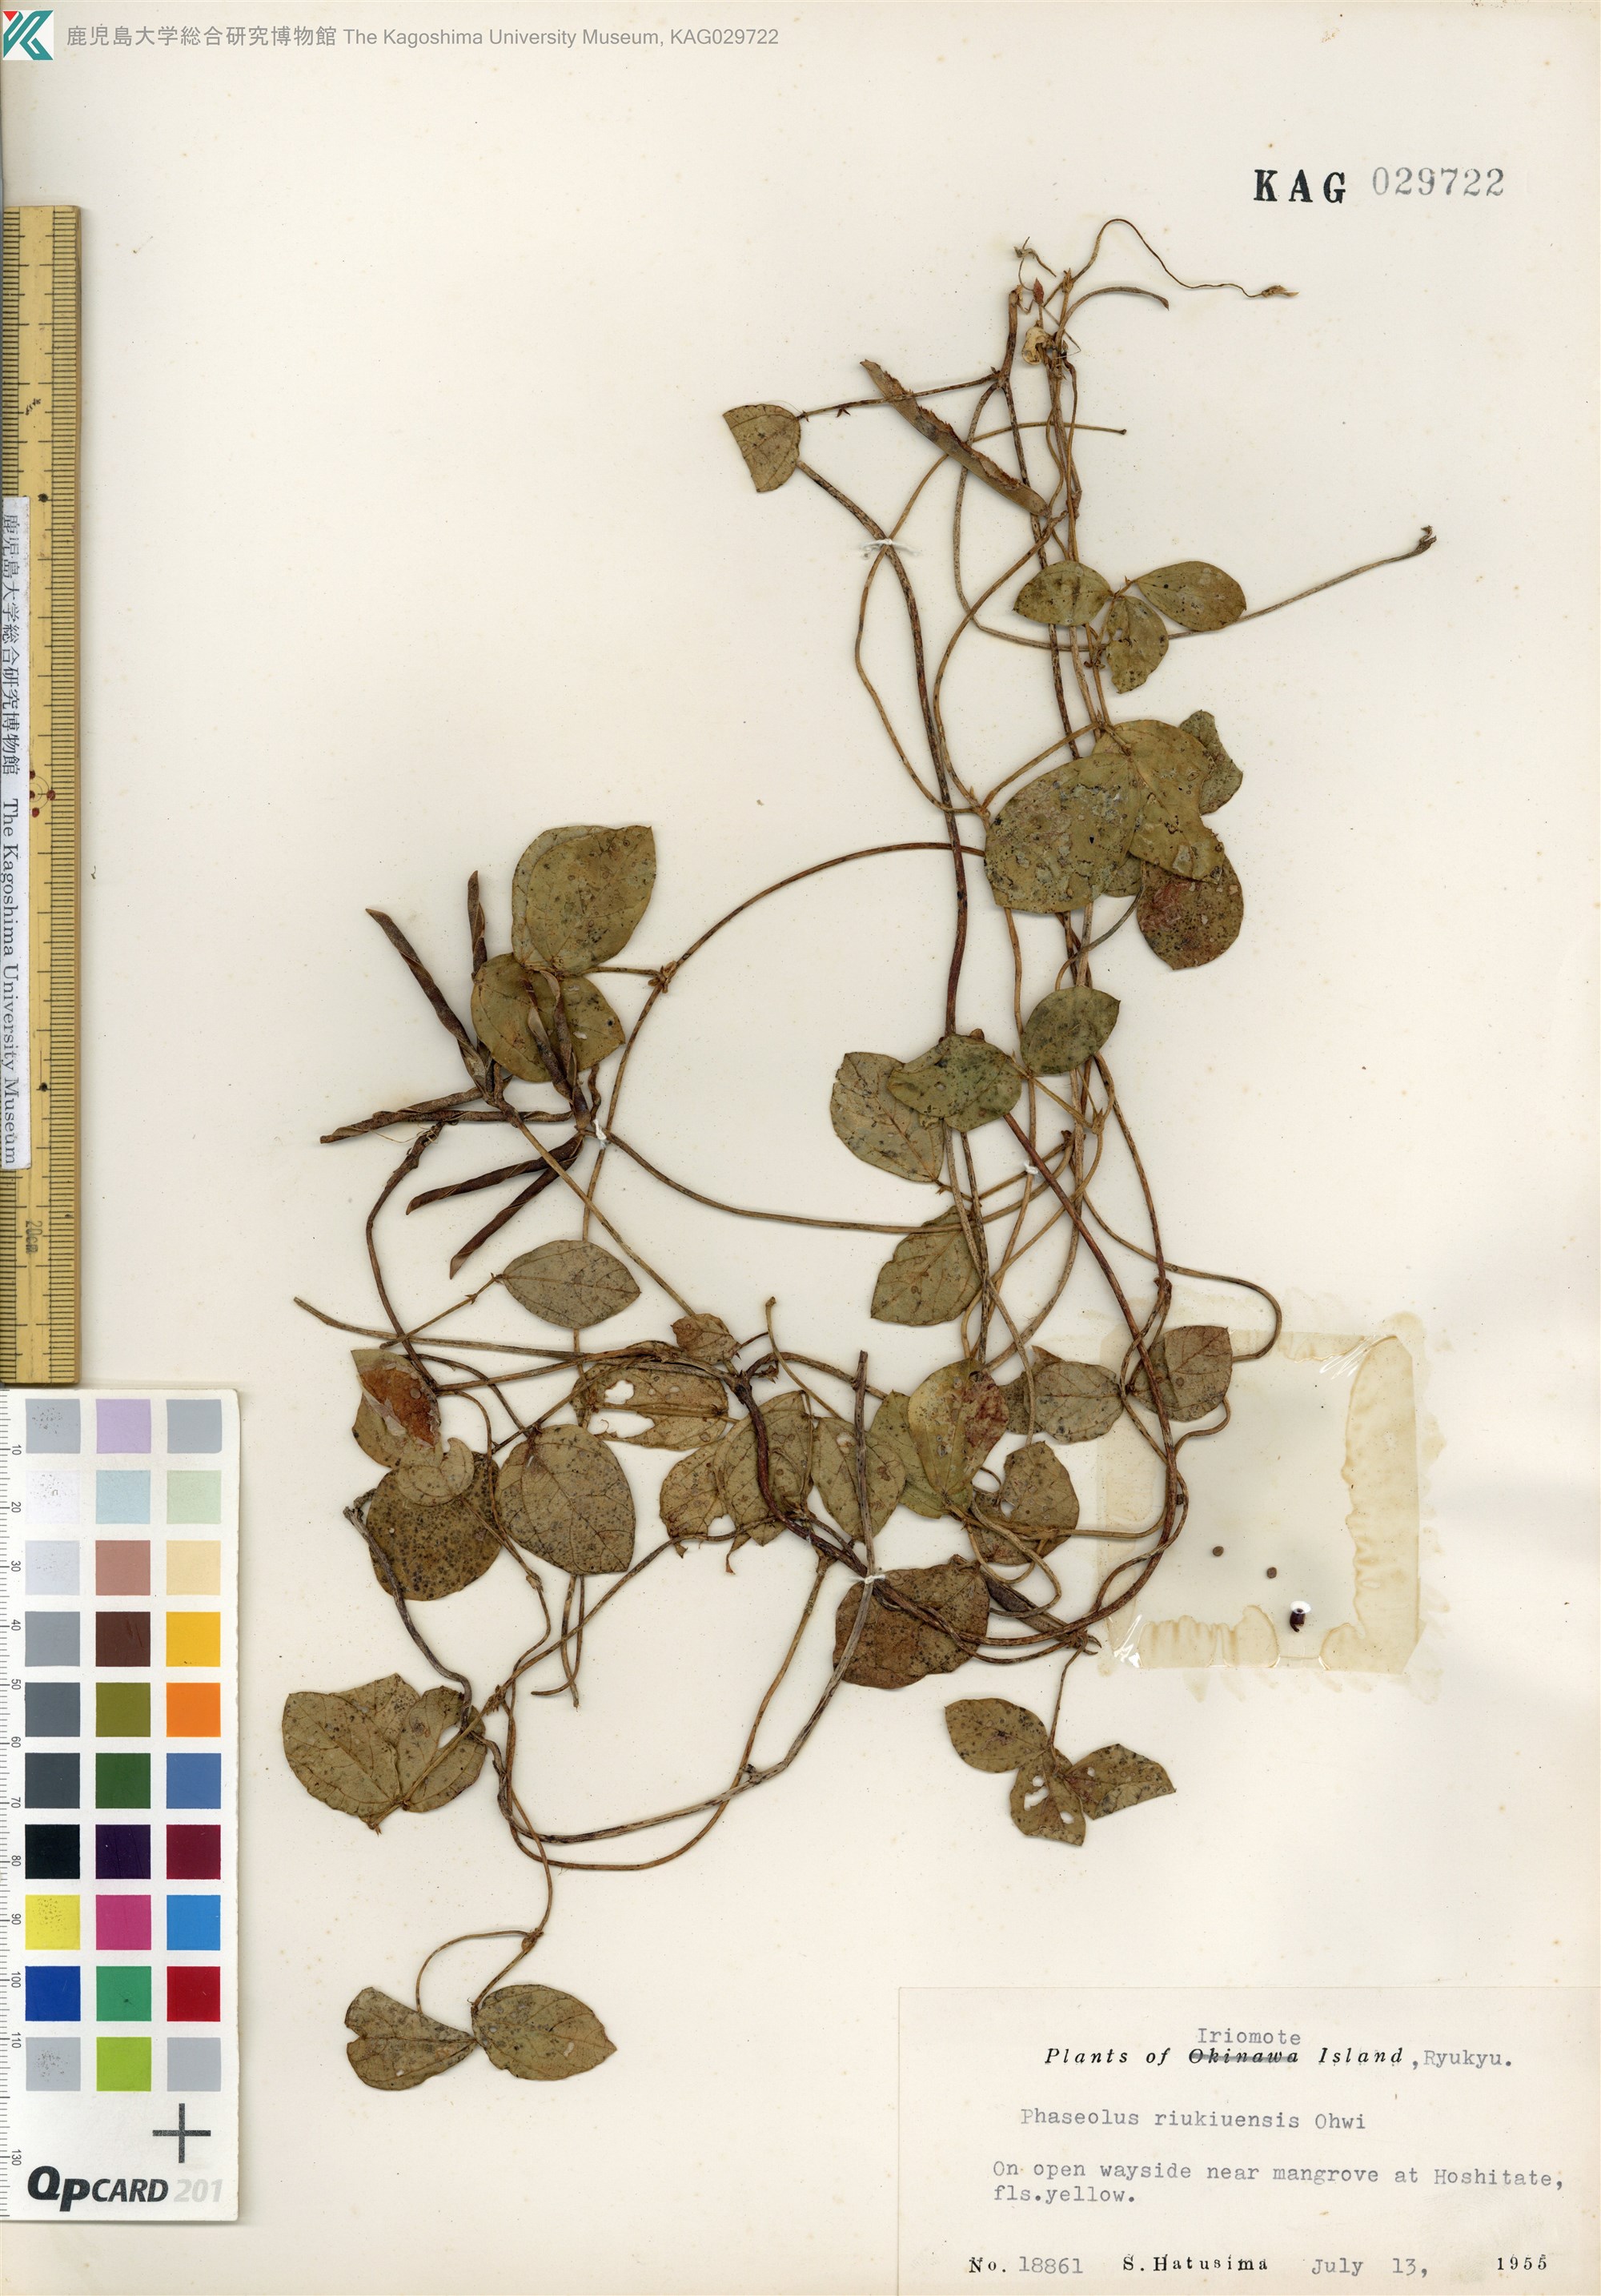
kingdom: Plantae
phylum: Tracheophyta
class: Magnoliopsida
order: Fabales
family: Fabaceae
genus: Vigna
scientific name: Vigna minima
